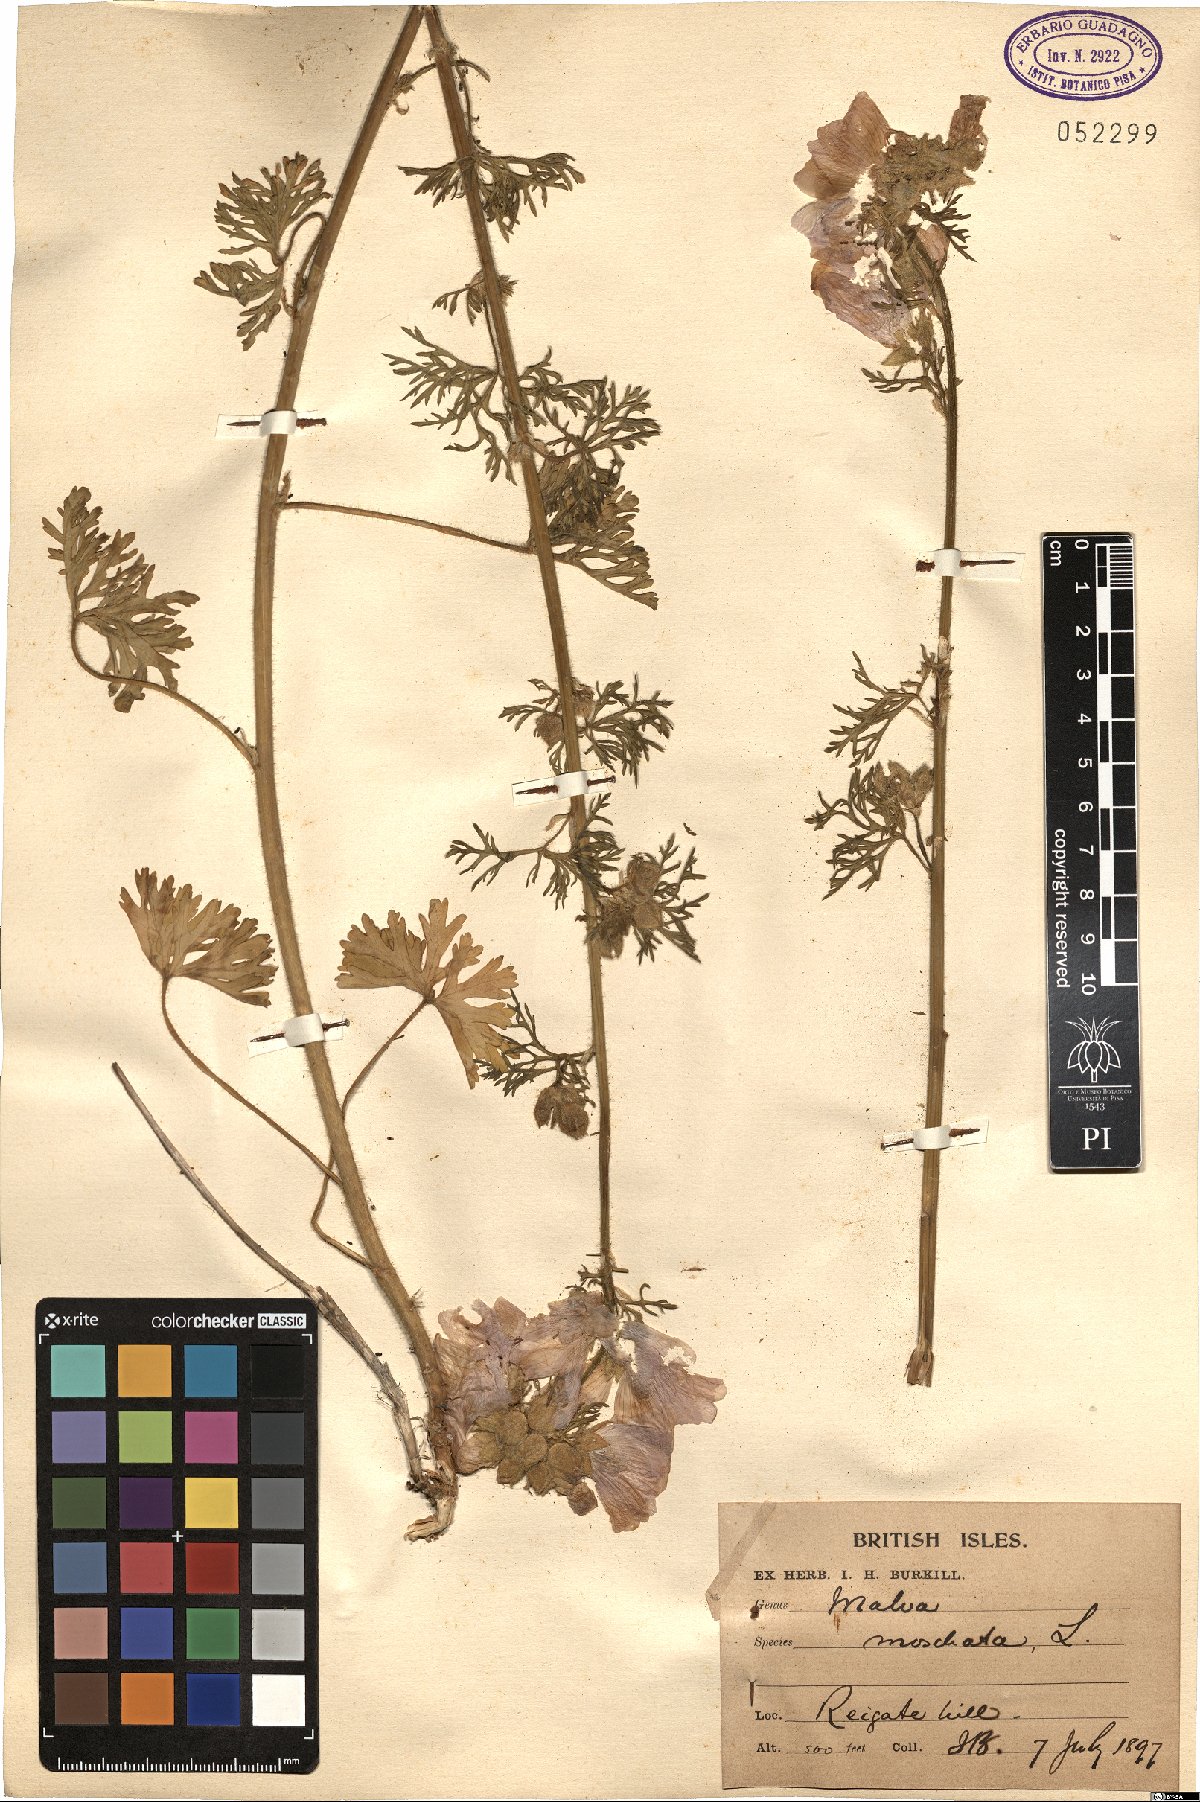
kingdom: Plantae
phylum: Tracheophyta
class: Magnoliopsida
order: Malvales
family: Malvaceae
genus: Malva
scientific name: Malva moschata
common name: Musk mallow
